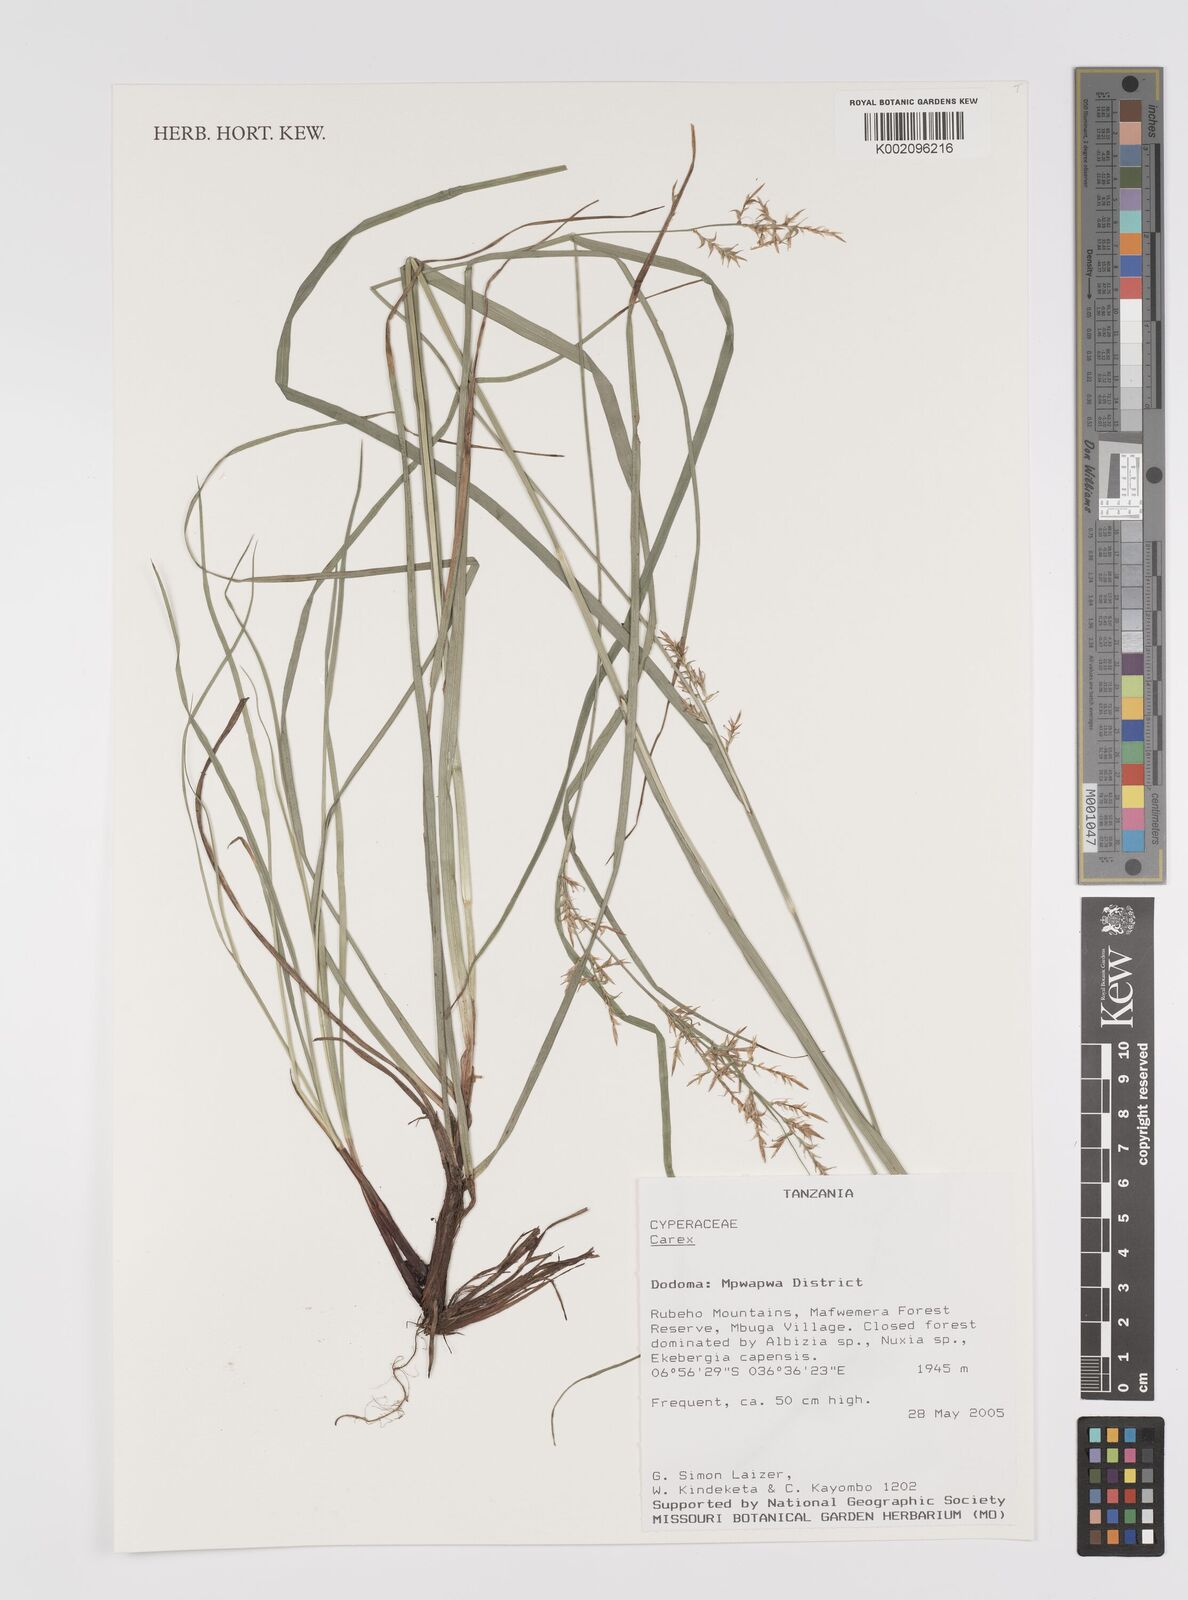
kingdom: Plantae
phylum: Tracheophyta
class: Liliopsida
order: Poales
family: Cyperaceae
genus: Carex
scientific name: Carex
